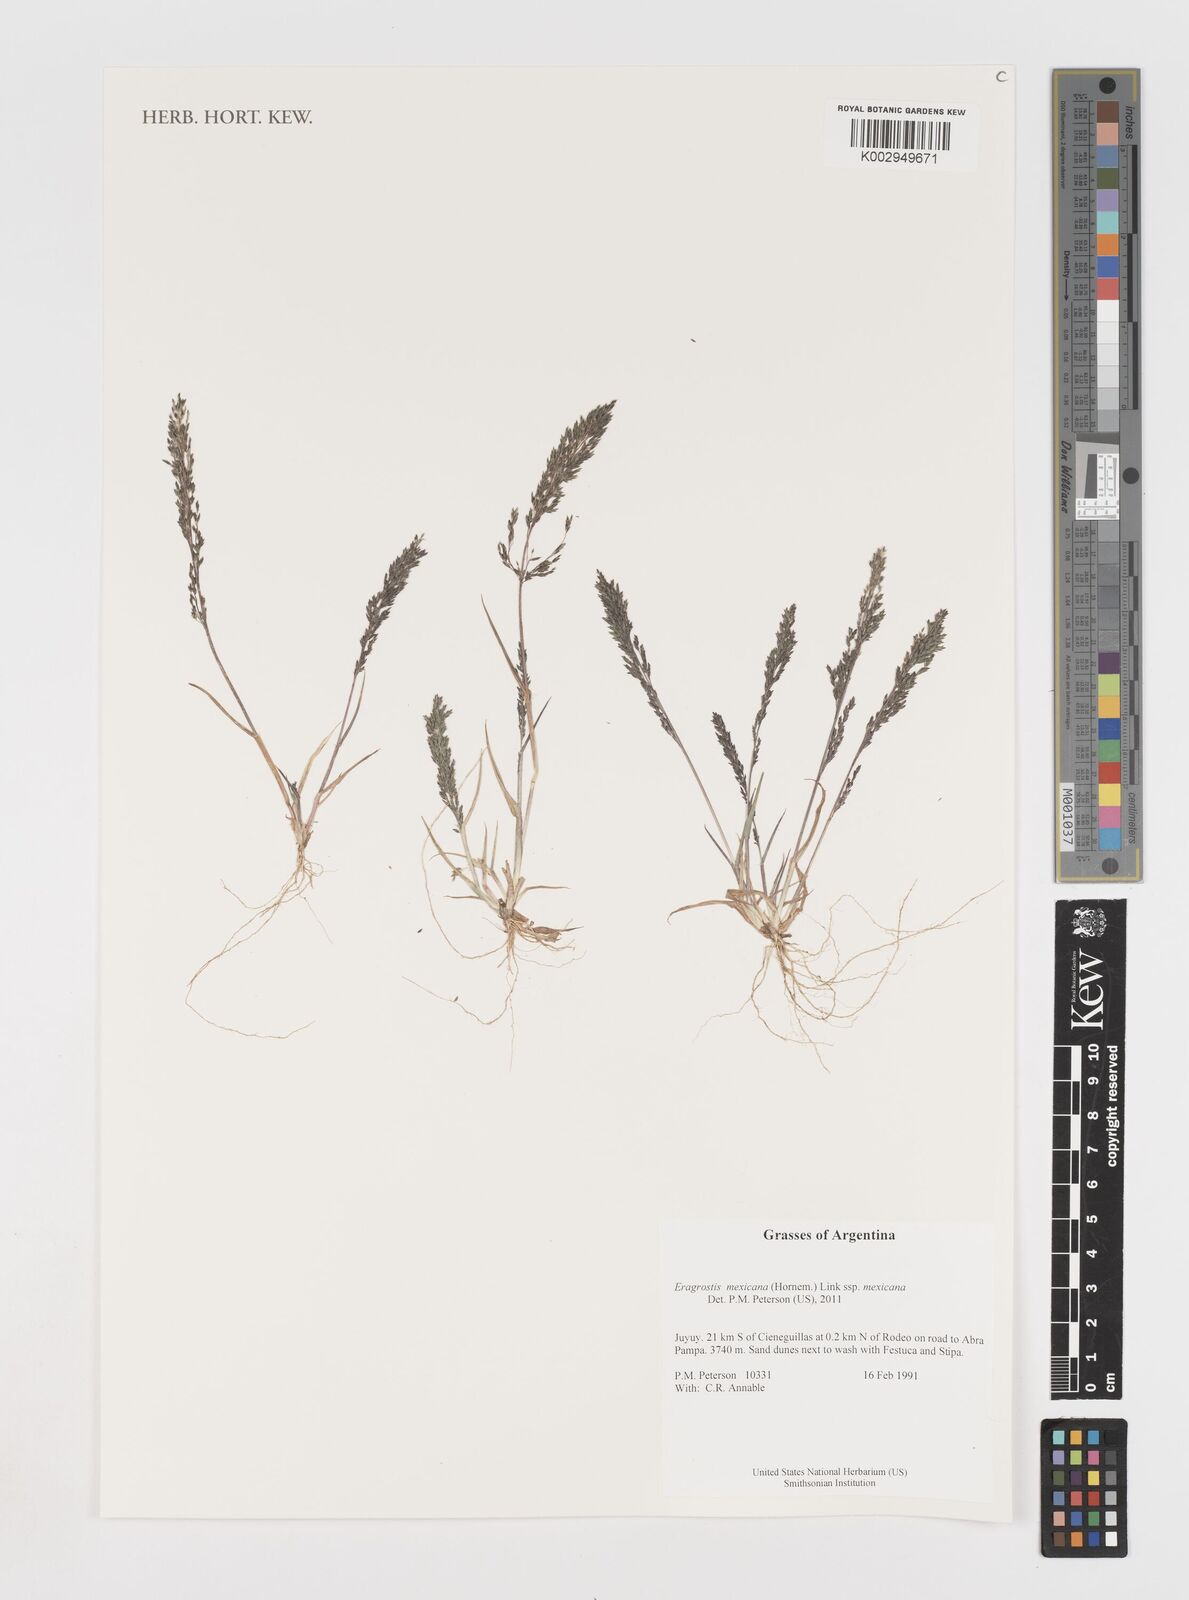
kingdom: Plantae
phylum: Tracheophyta
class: Liliopsida
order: Poales
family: Poaceae
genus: Eragrostis
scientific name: Eragrostis mexicana
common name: Mexican love grass
